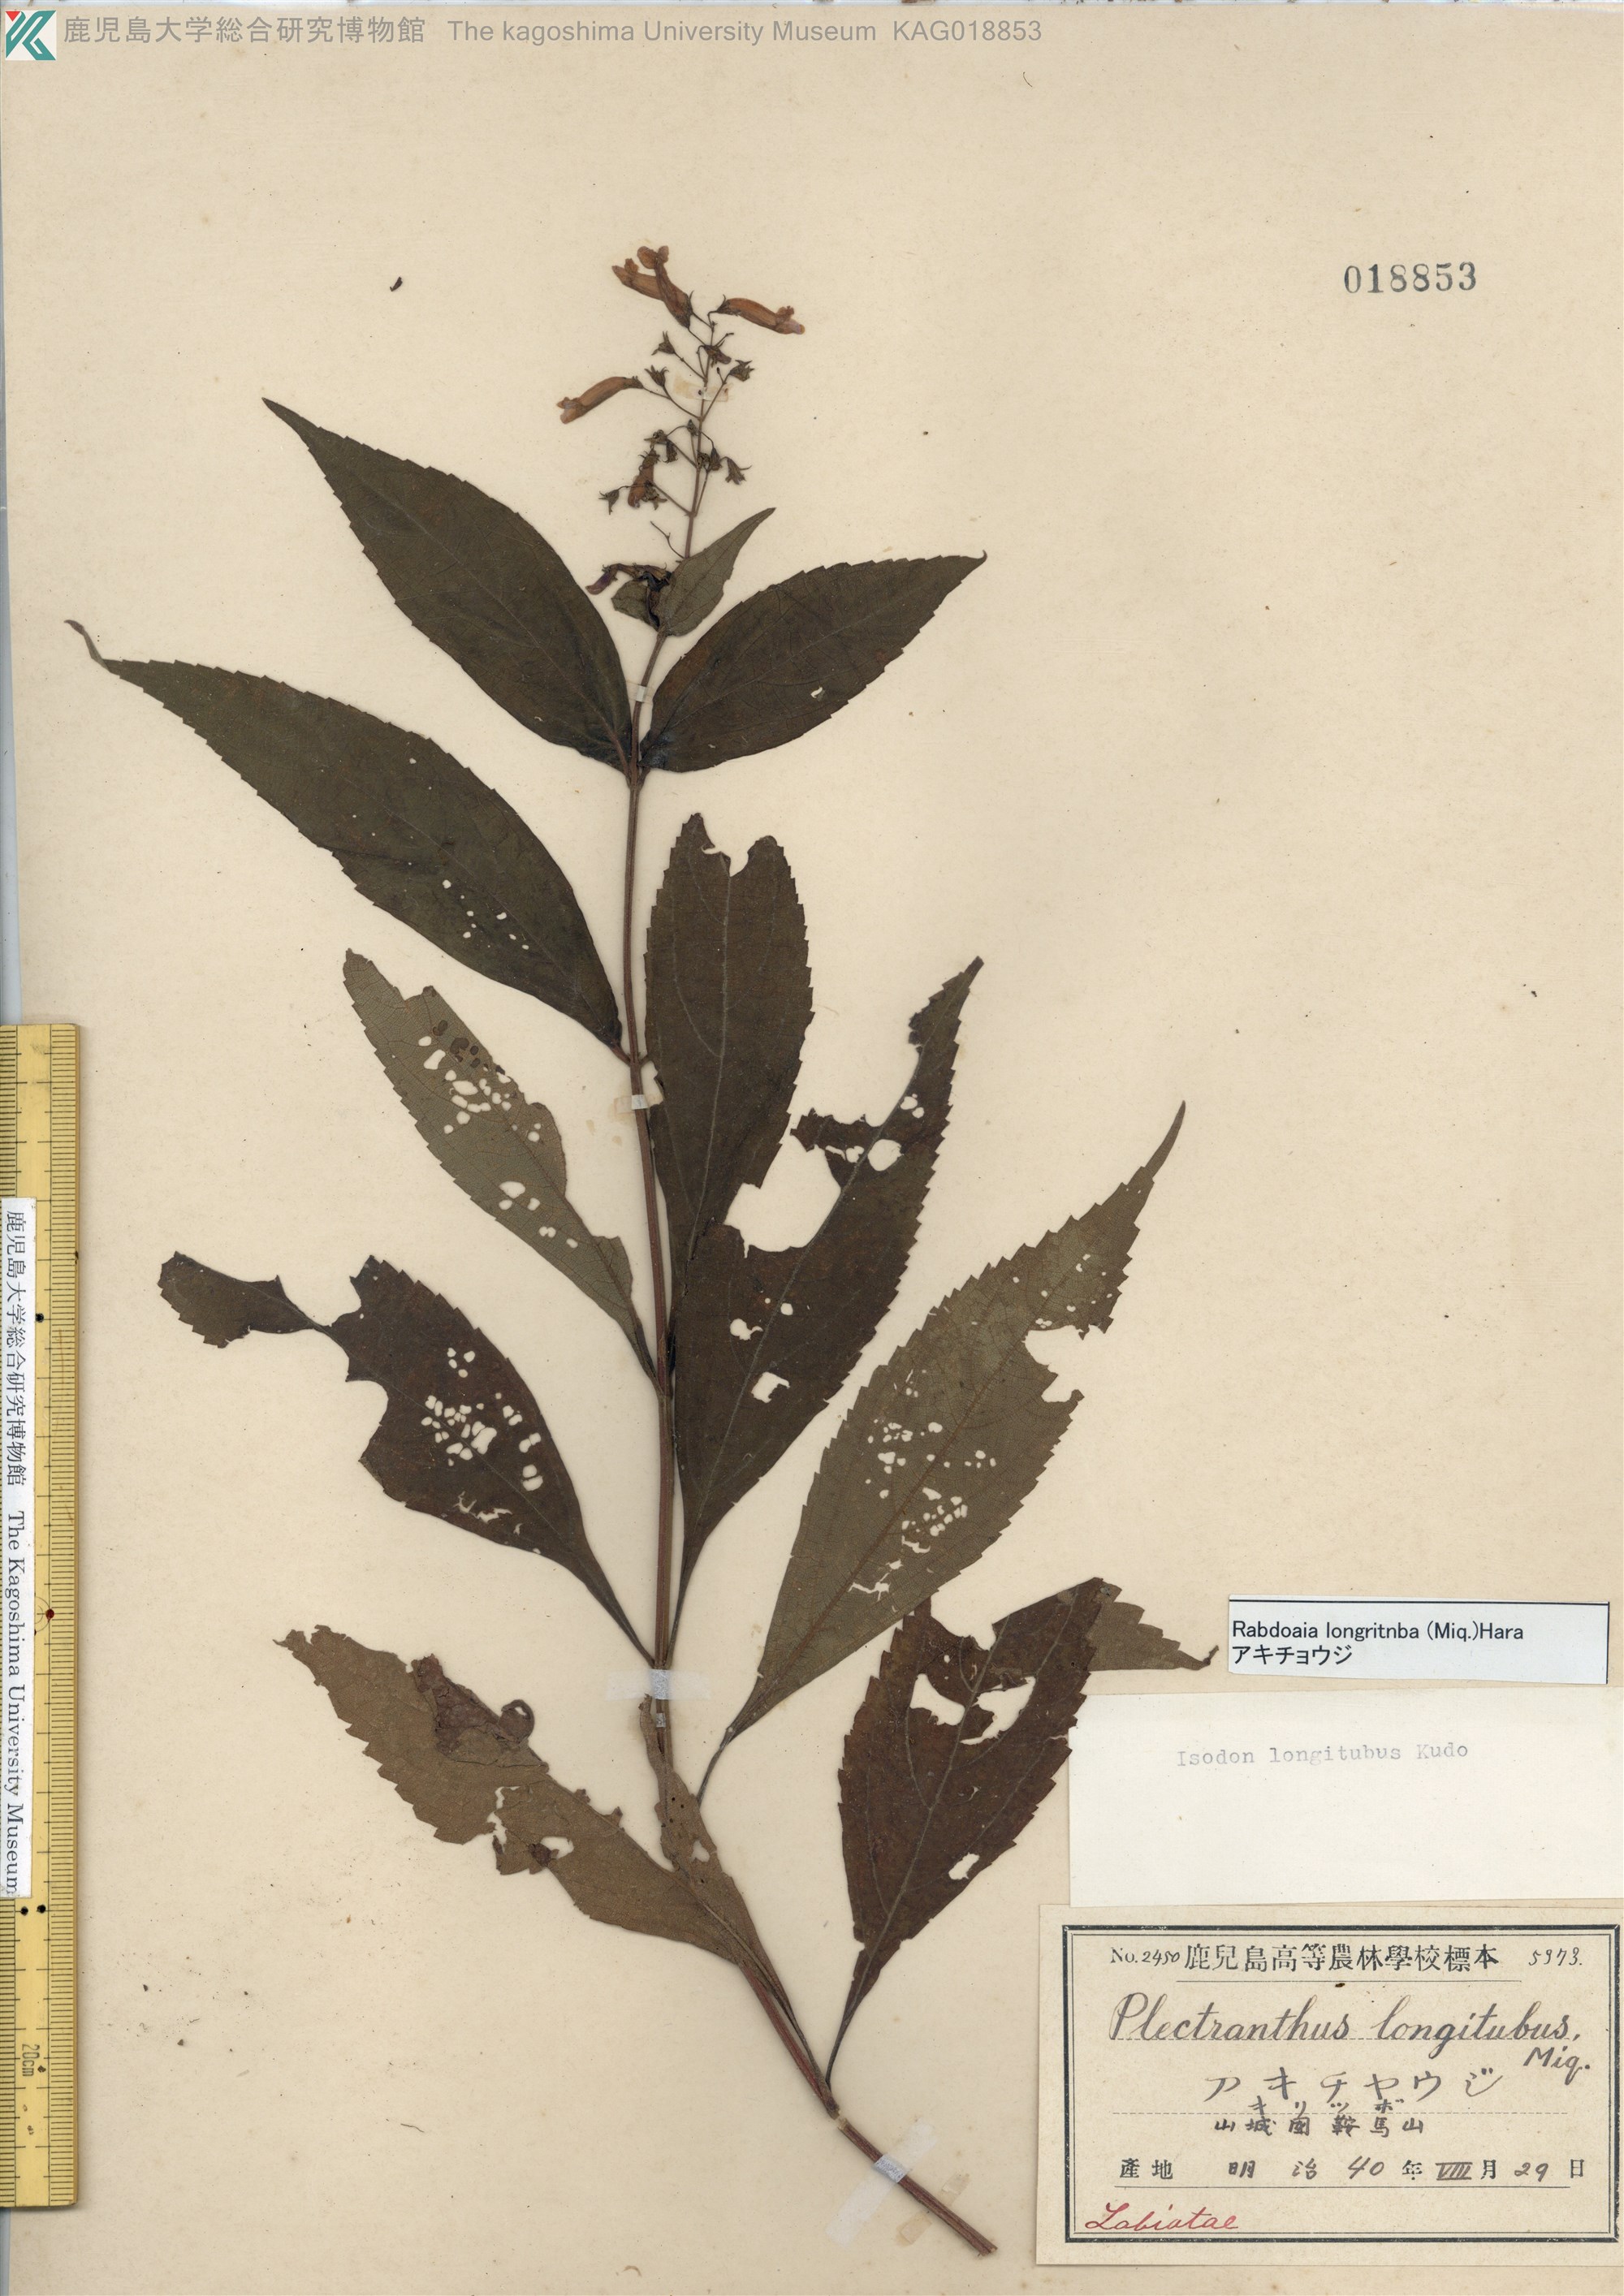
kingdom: Plantae
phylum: Tracheophyta
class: Magnoliopsida
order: Lamiales
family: Lamiaceae
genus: Isodon
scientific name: Isodon longitubus
